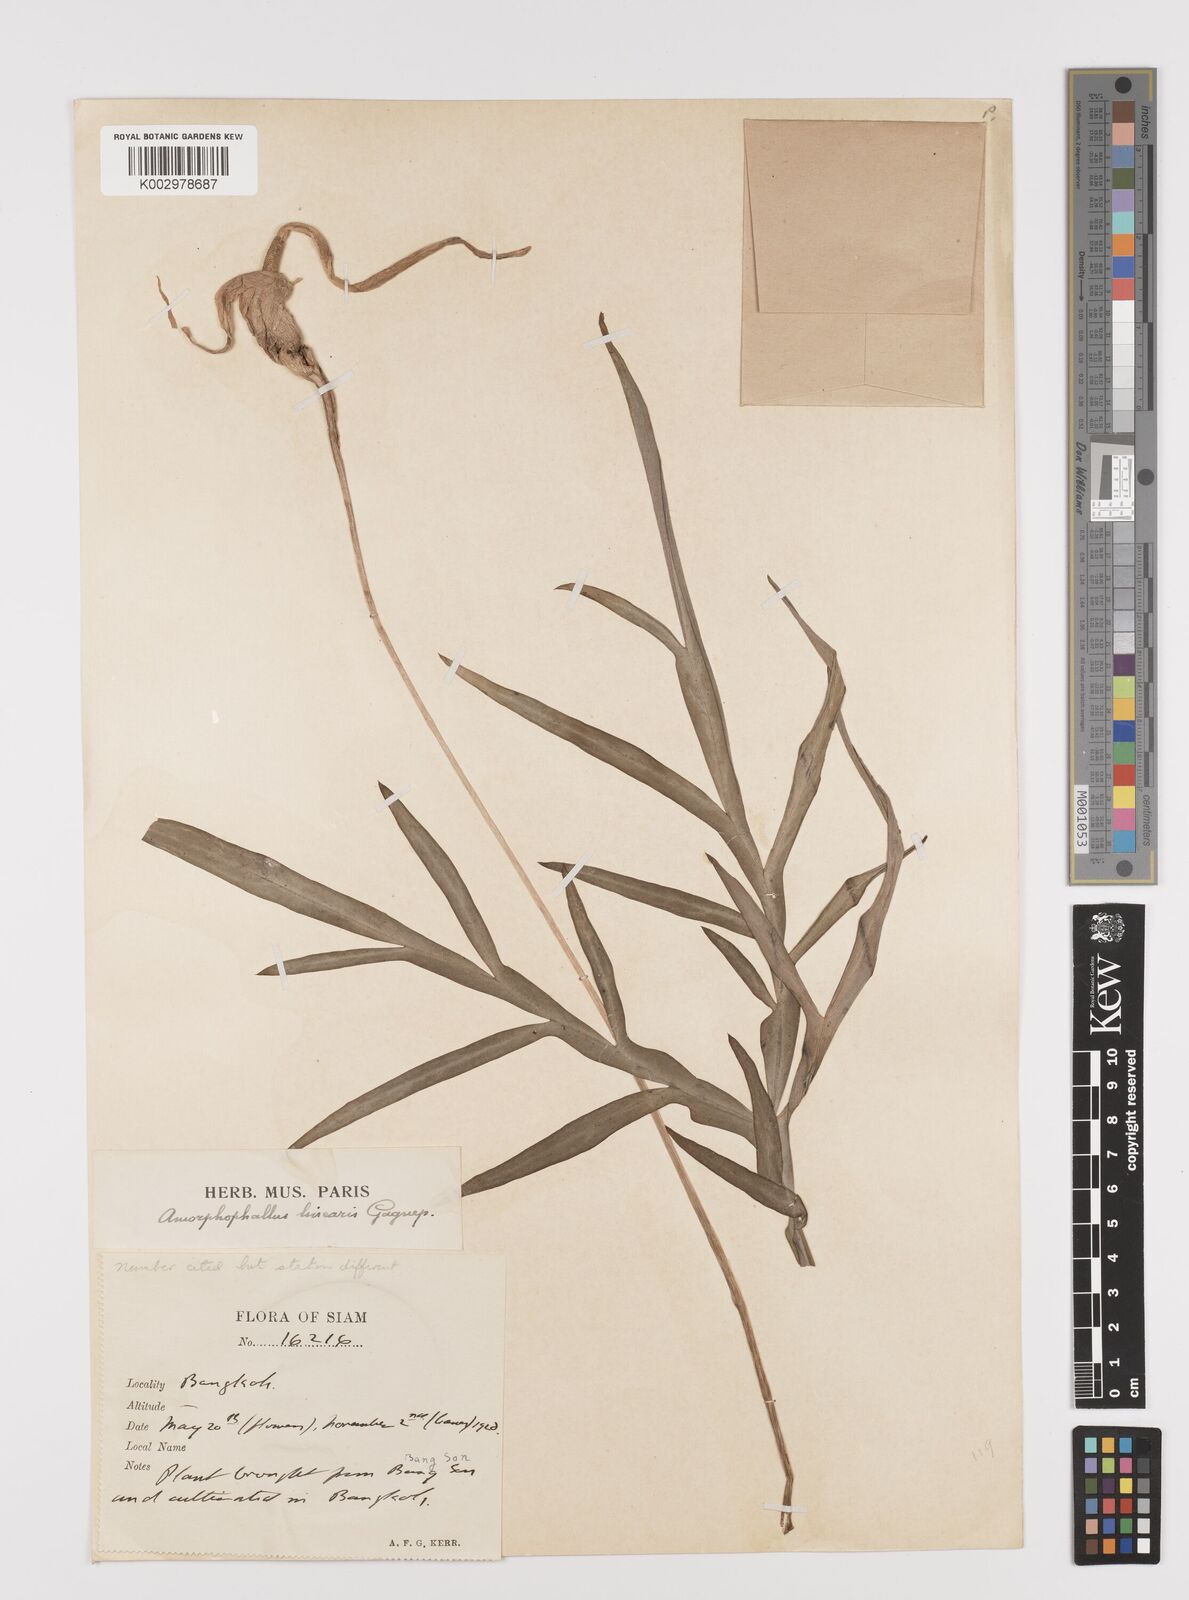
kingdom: Plantae
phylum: Tracheophyta
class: Liliopsida
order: Alismatales
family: Araceae
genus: Amorphophallus
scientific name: Amorphophallus linearis
